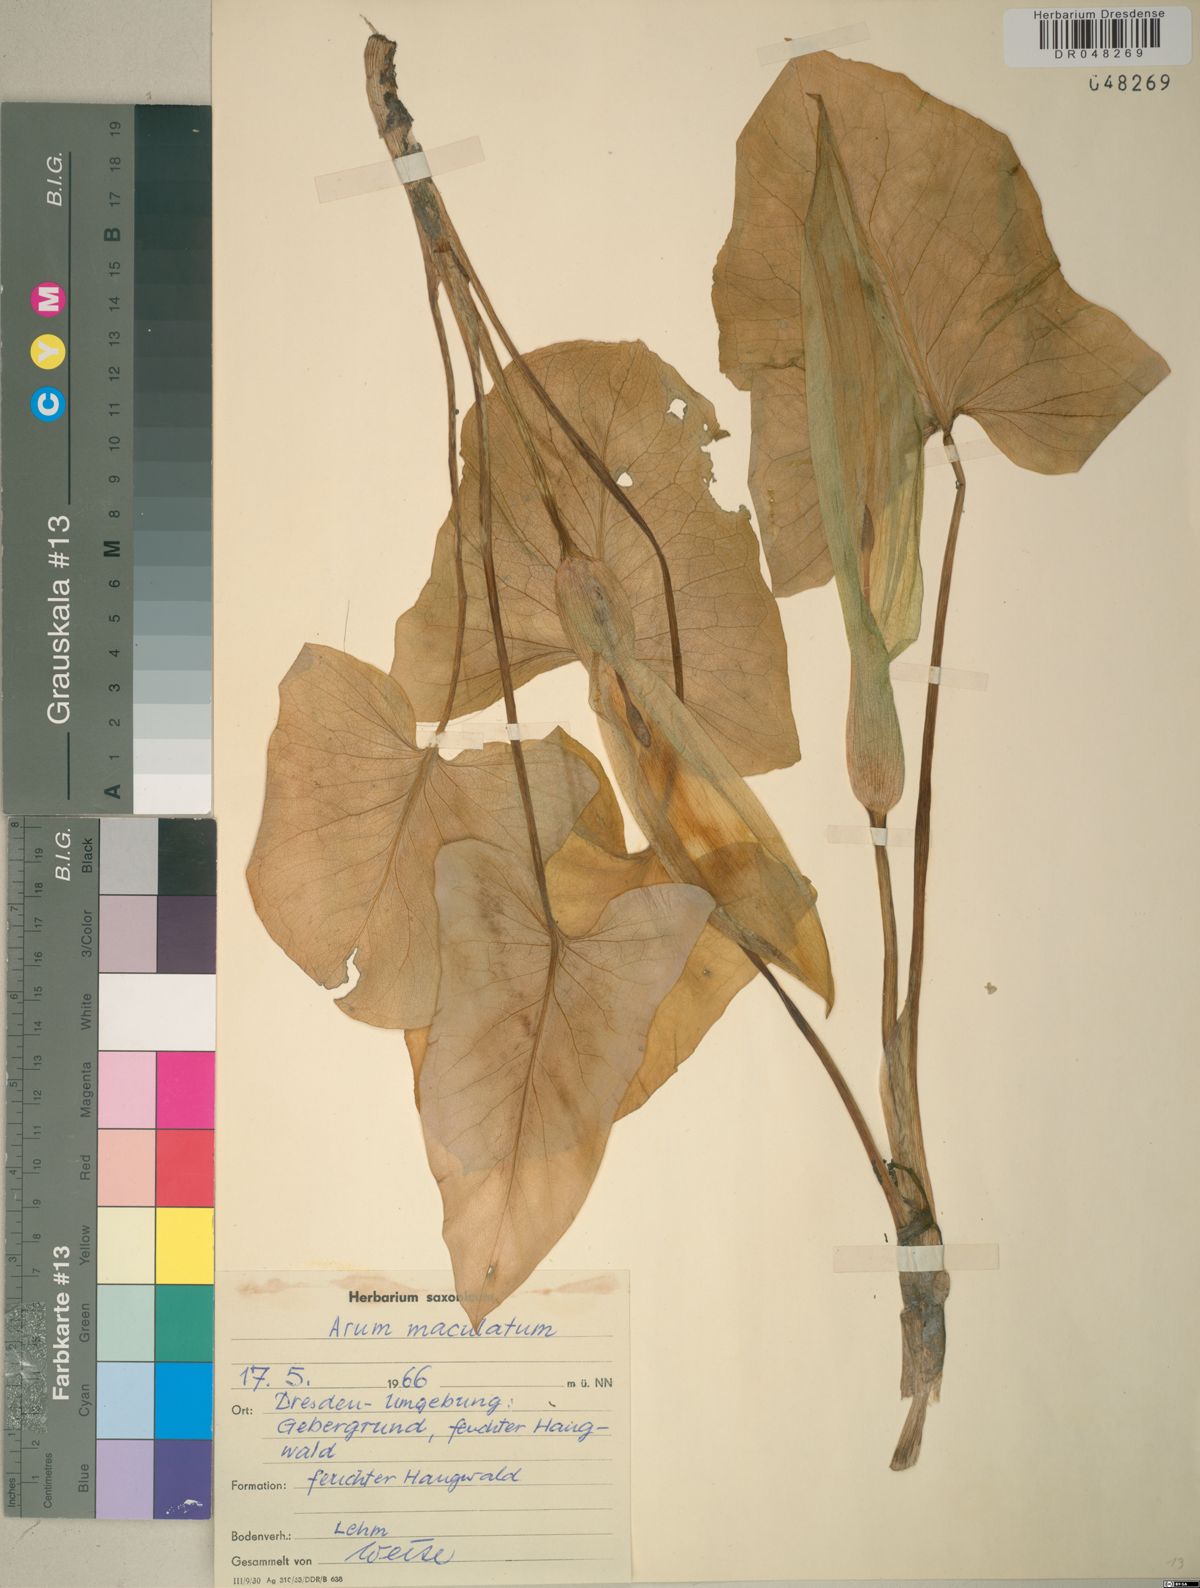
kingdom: Plantae
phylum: Tracheophyta
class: Liliopsida
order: Alismatales
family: Araceae
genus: Arum
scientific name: Arum maculatum
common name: Lords-and-ladies
